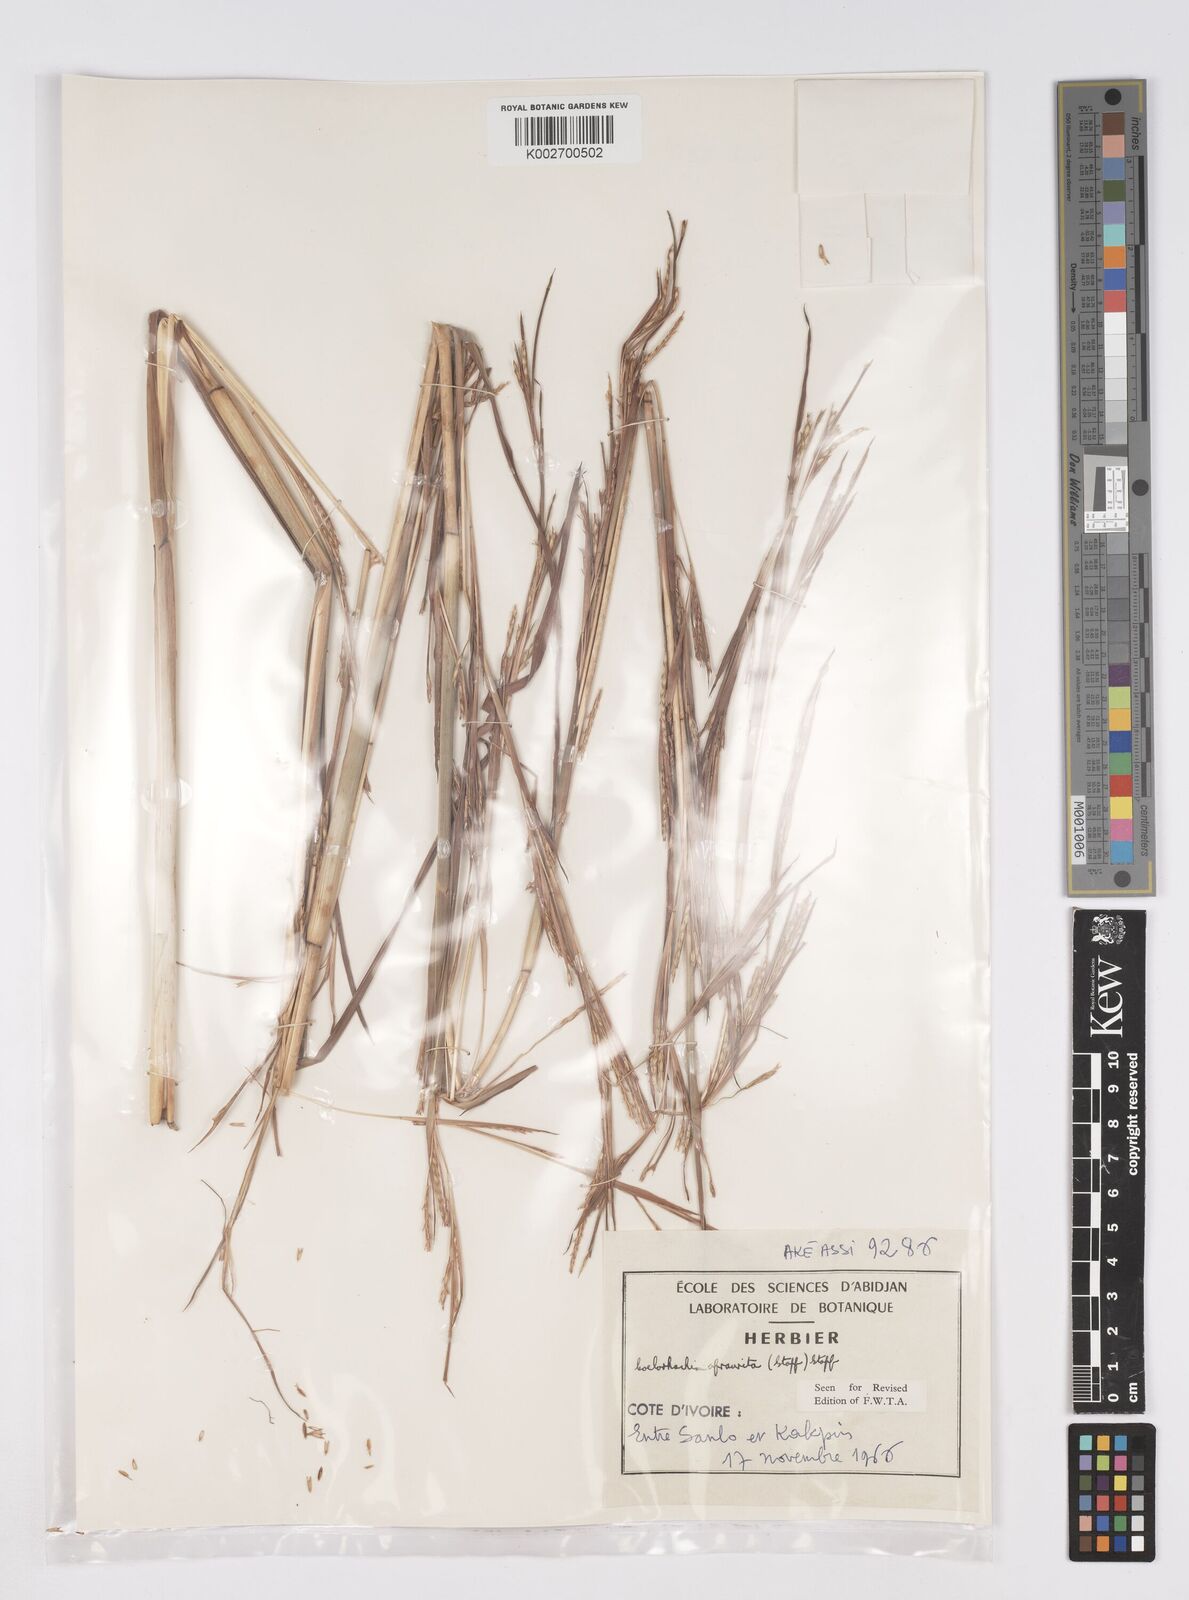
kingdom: Plantae
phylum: Tracheophyta
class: Liliopsida
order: Poales
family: Poaceae
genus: Rottboellia
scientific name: Rottboellia afraurita
